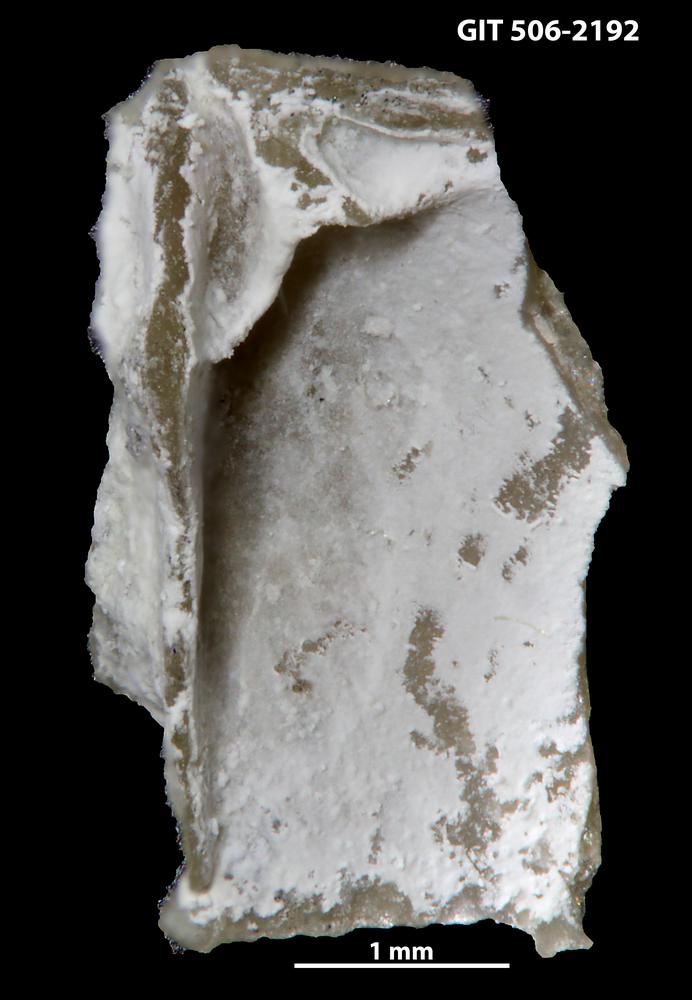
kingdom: Animalia
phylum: Brachiopoda
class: Rhynchonellata
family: Skenidiidae
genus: Skenidioides
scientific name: Skenidioides hymiri
